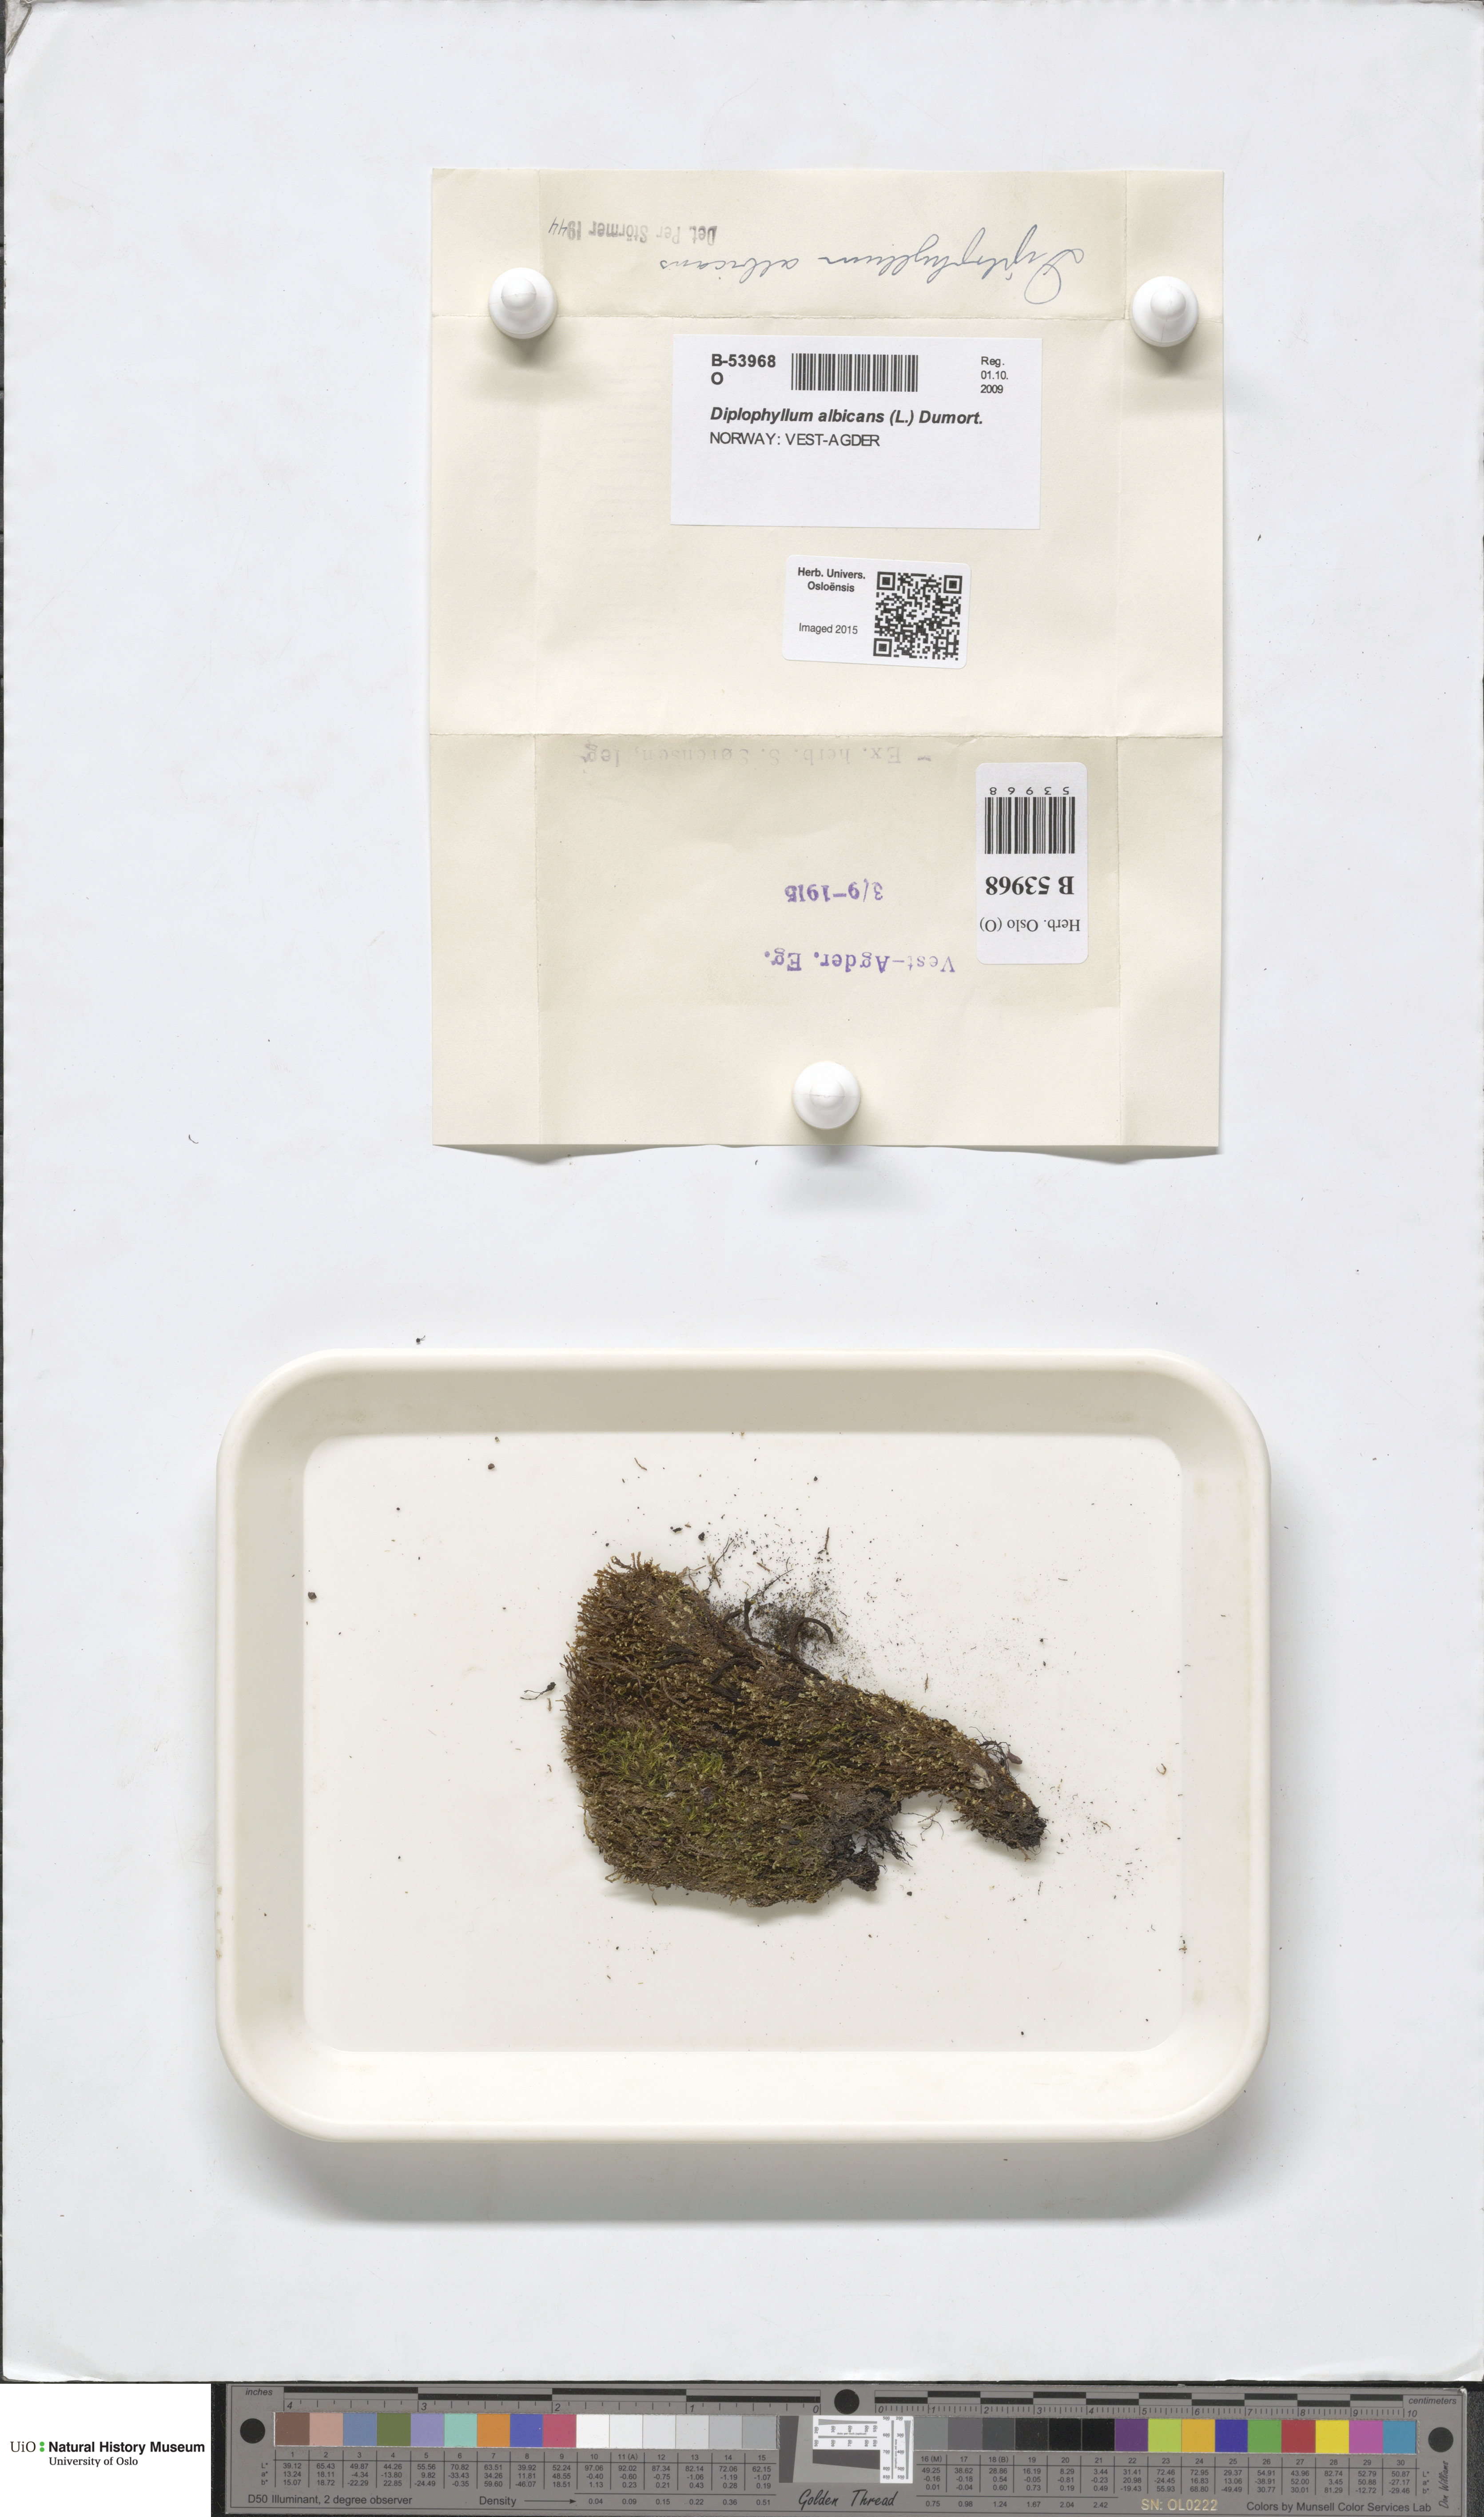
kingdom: Plantae
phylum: Marchantiophyta
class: Jungermanniopsida
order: Jungermanniales
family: Scapaniaceae
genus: Diplophyllum
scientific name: Diplophyllum albicans
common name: White earwort
